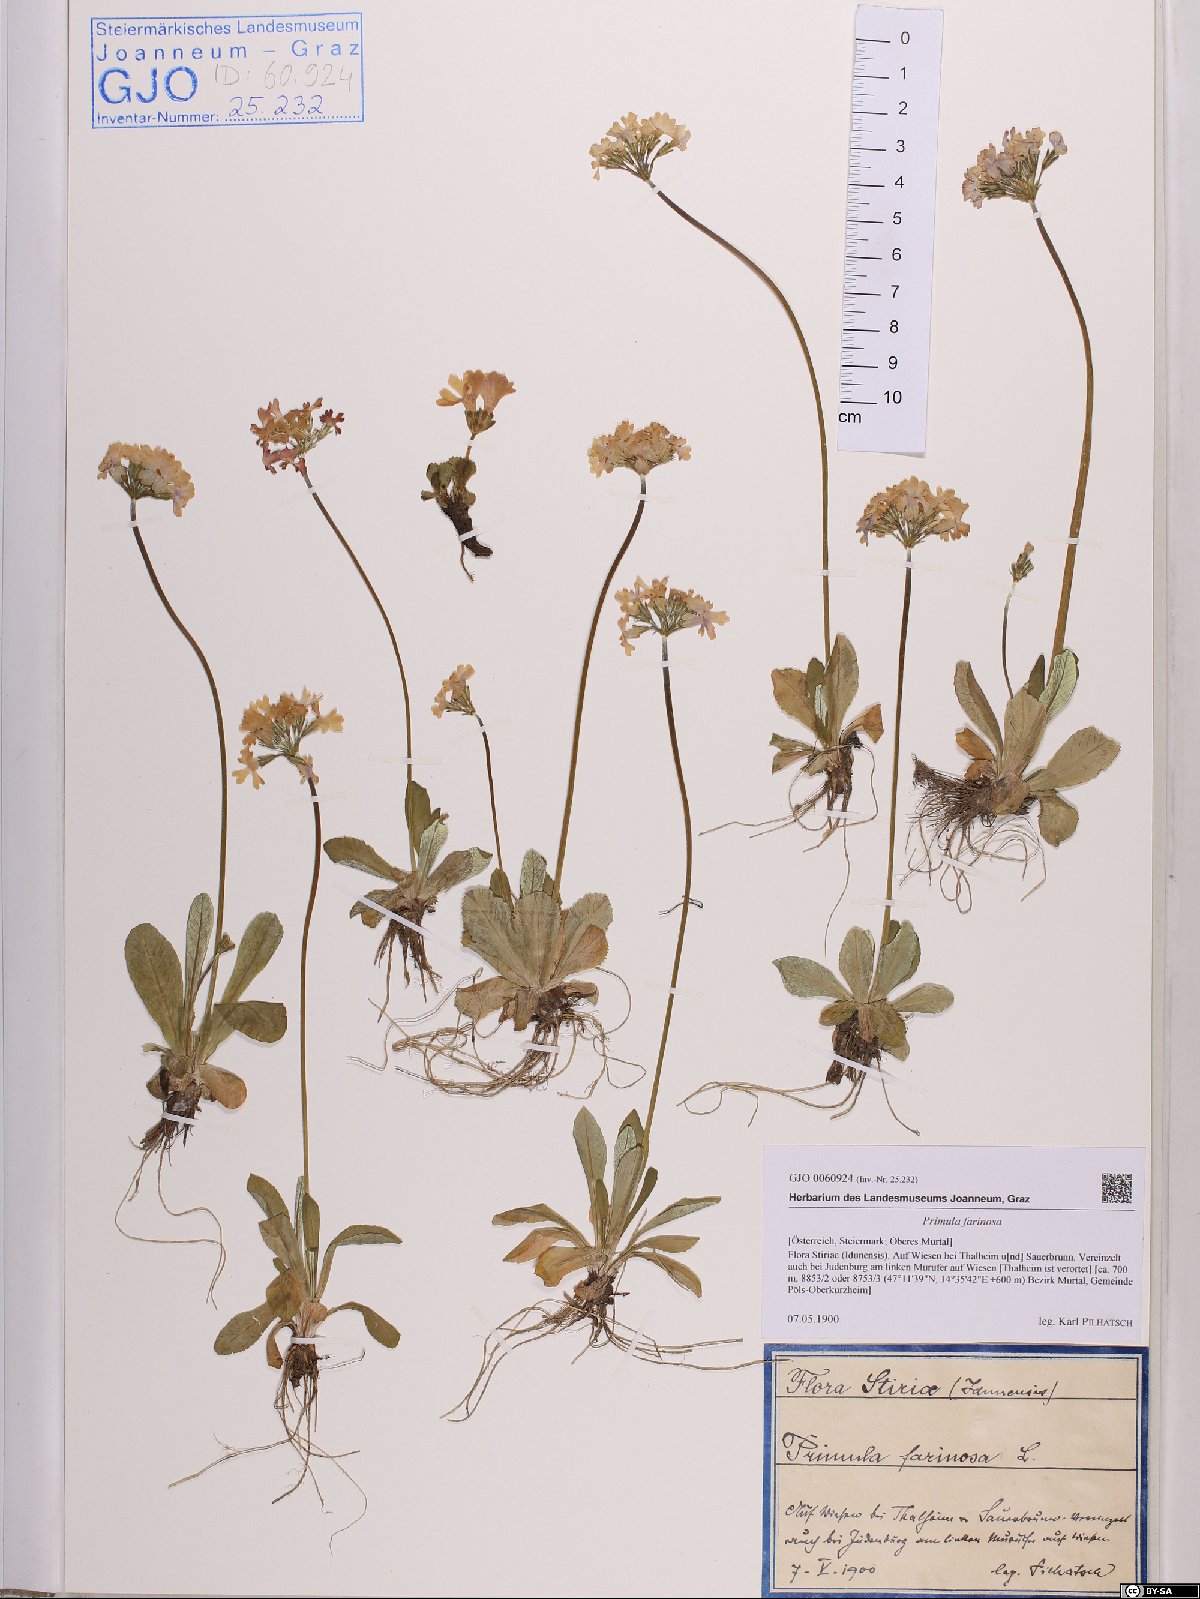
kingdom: Plantae
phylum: Tracheophyta
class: Magnoliopsida
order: Ericales
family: Primulaceae
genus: Primula
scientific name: Primula farinosa
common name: Bird's-eye primrose
